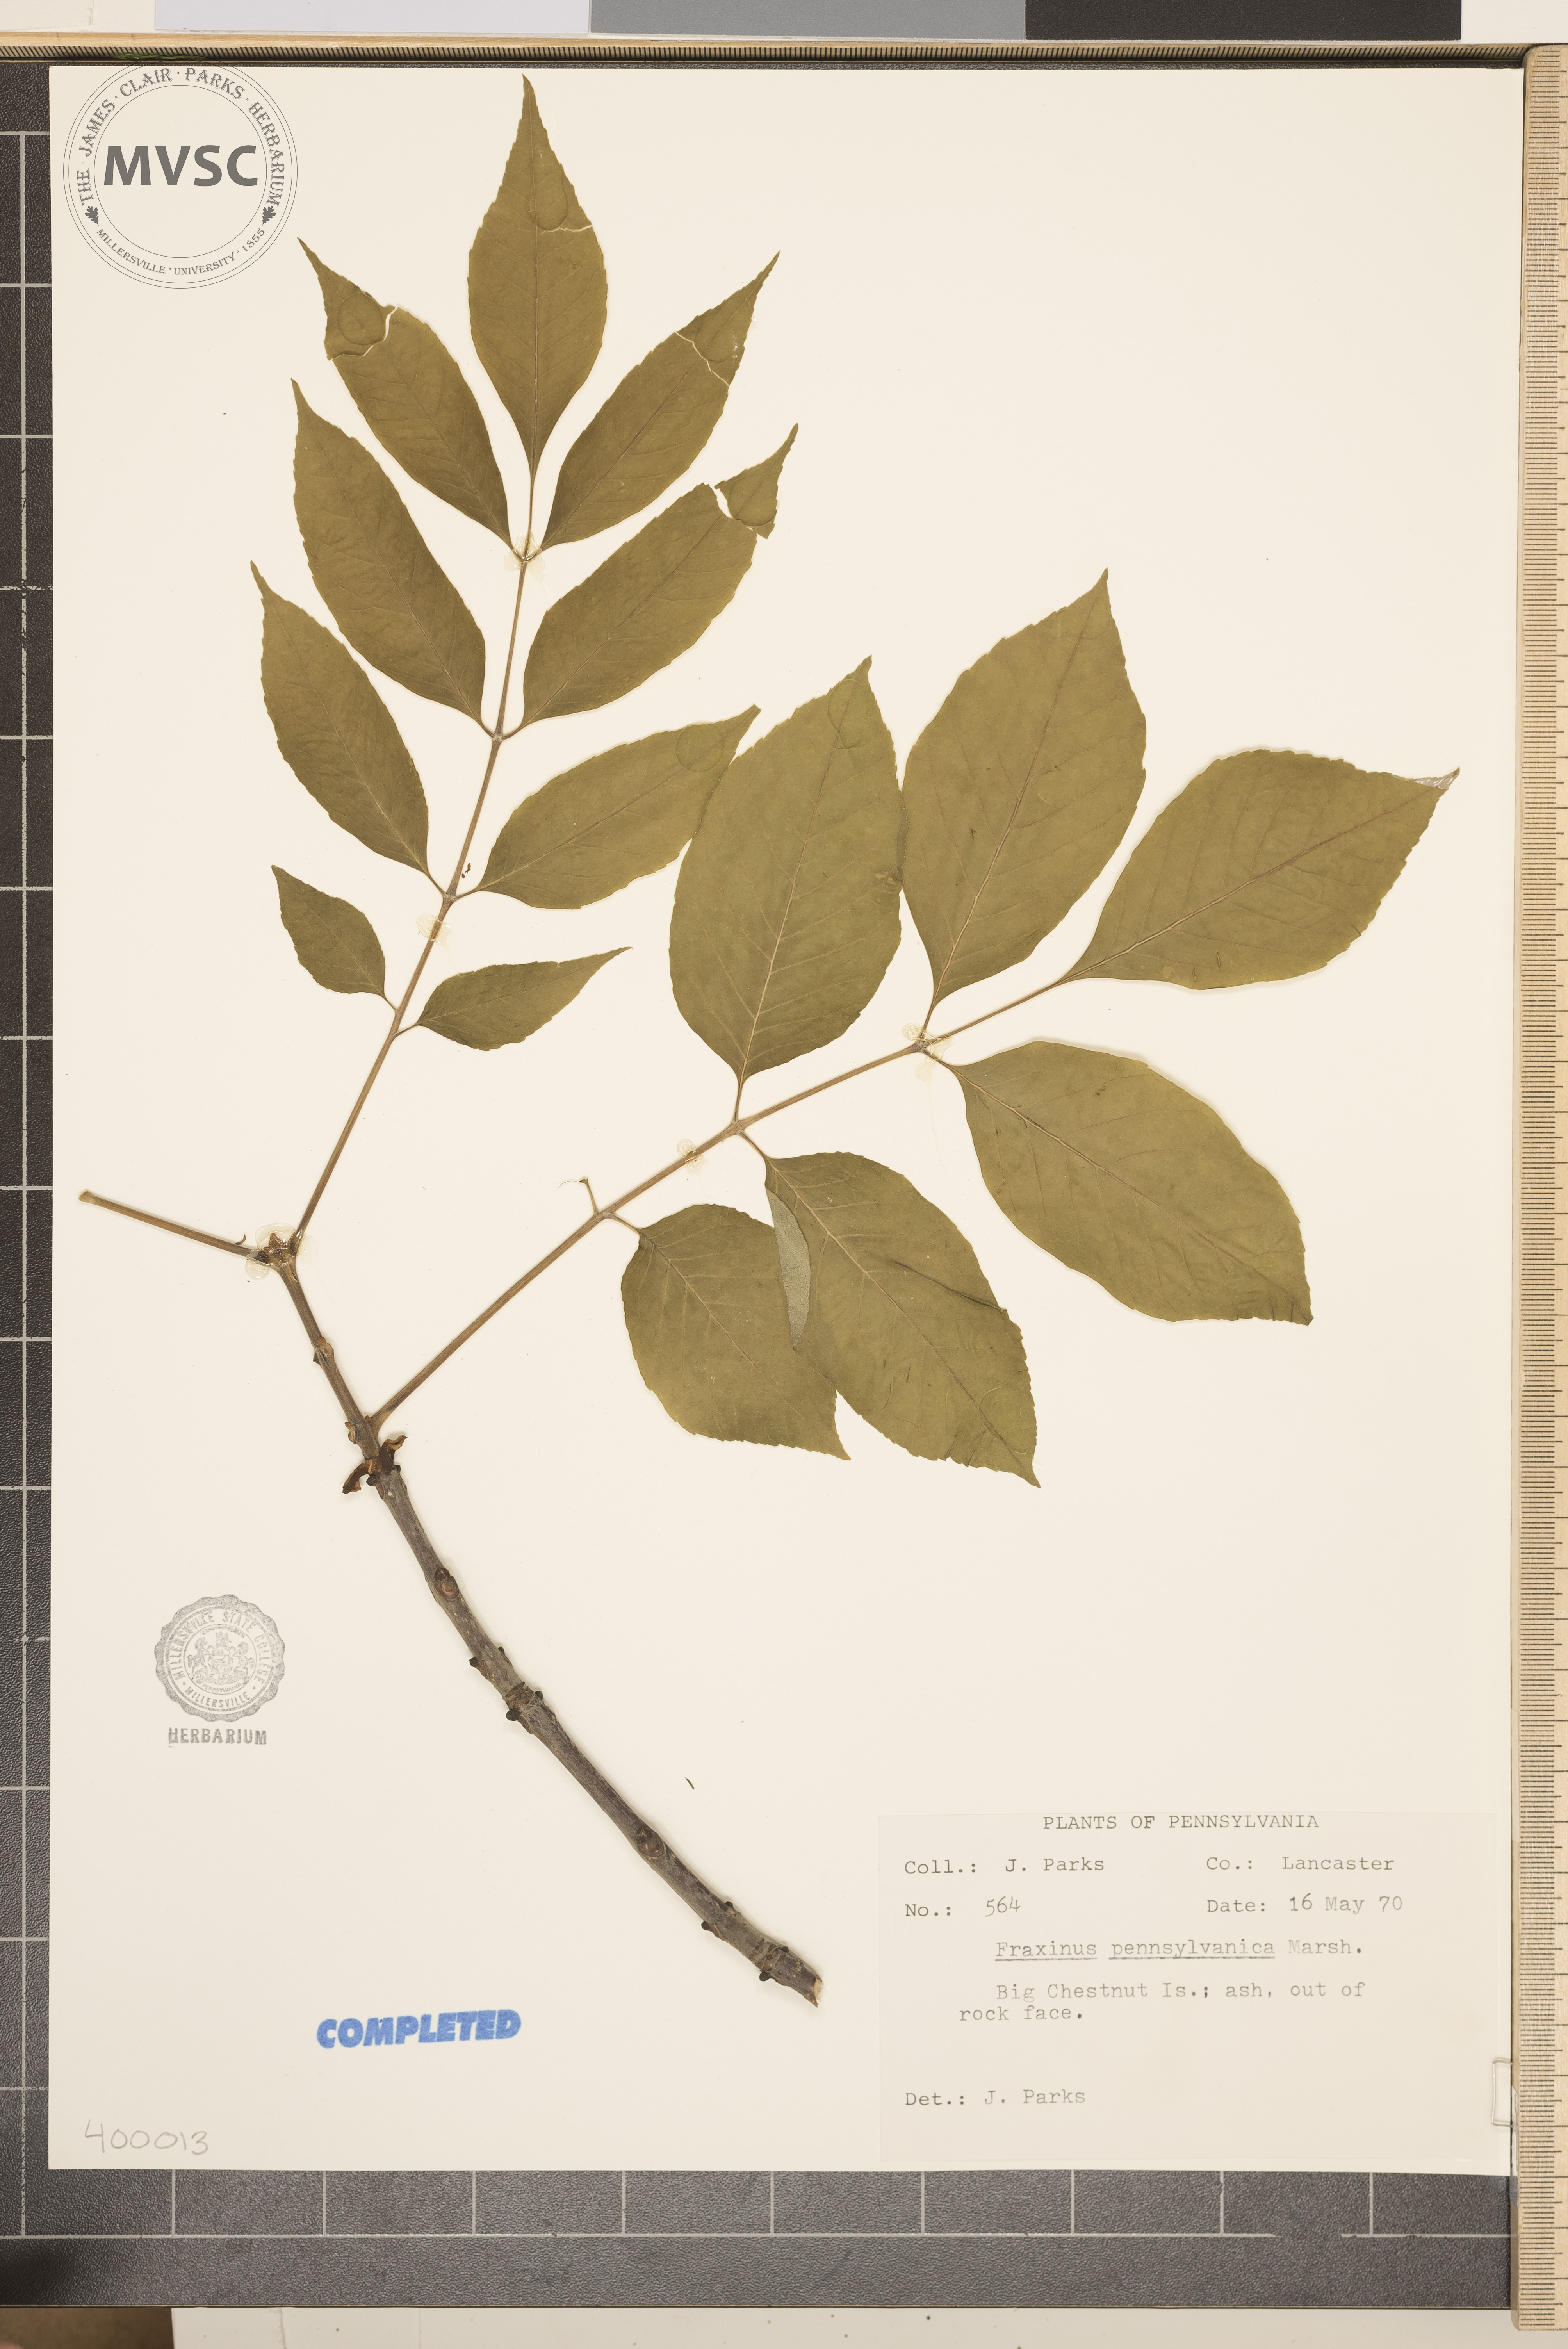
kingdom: Plantae
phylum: Tracheophyta
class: Magnoliopsida
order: Lamiales
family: Oleaceae
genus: Fraxinus
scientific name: Fraxinus pennsylvanica
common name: ash
